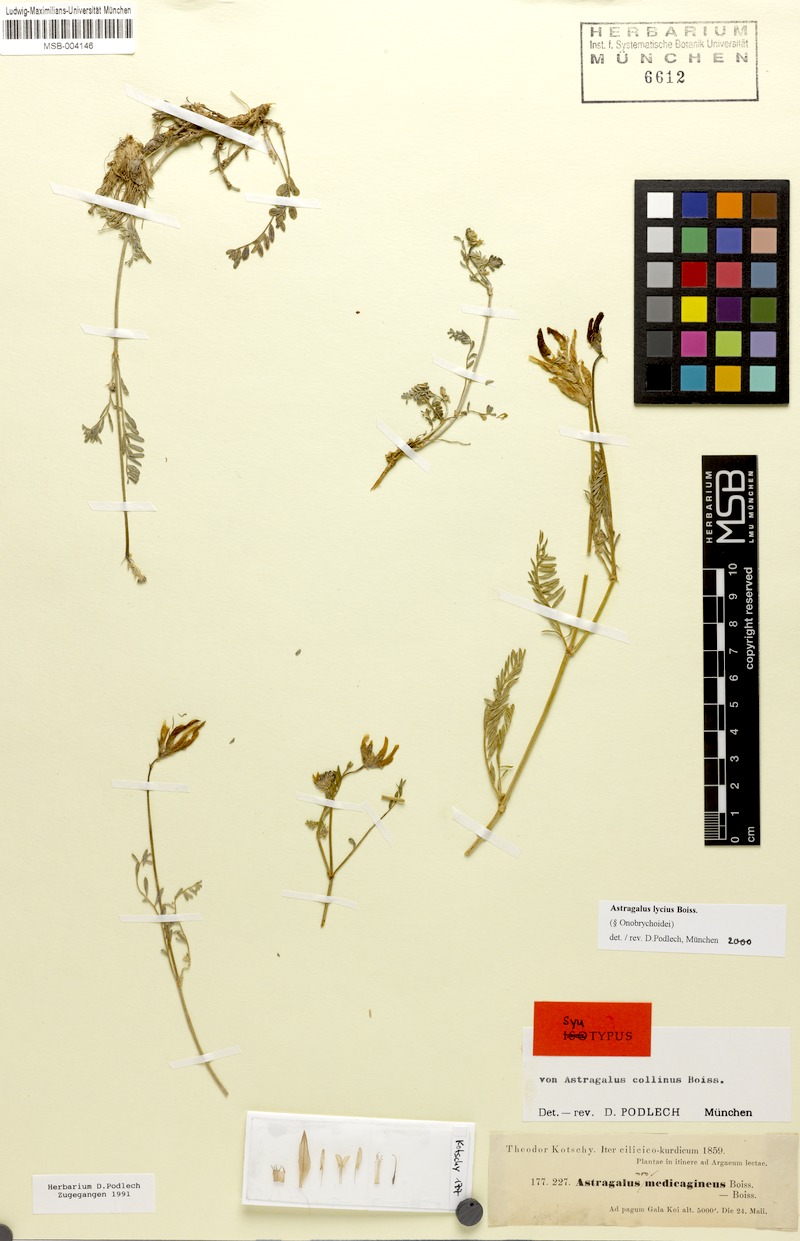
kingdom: Plantae
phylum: Tracheophyta
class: Magnoliopsida
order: Fabales
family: Fabaceae
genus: Astragalus
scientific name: Astragalus lycius
